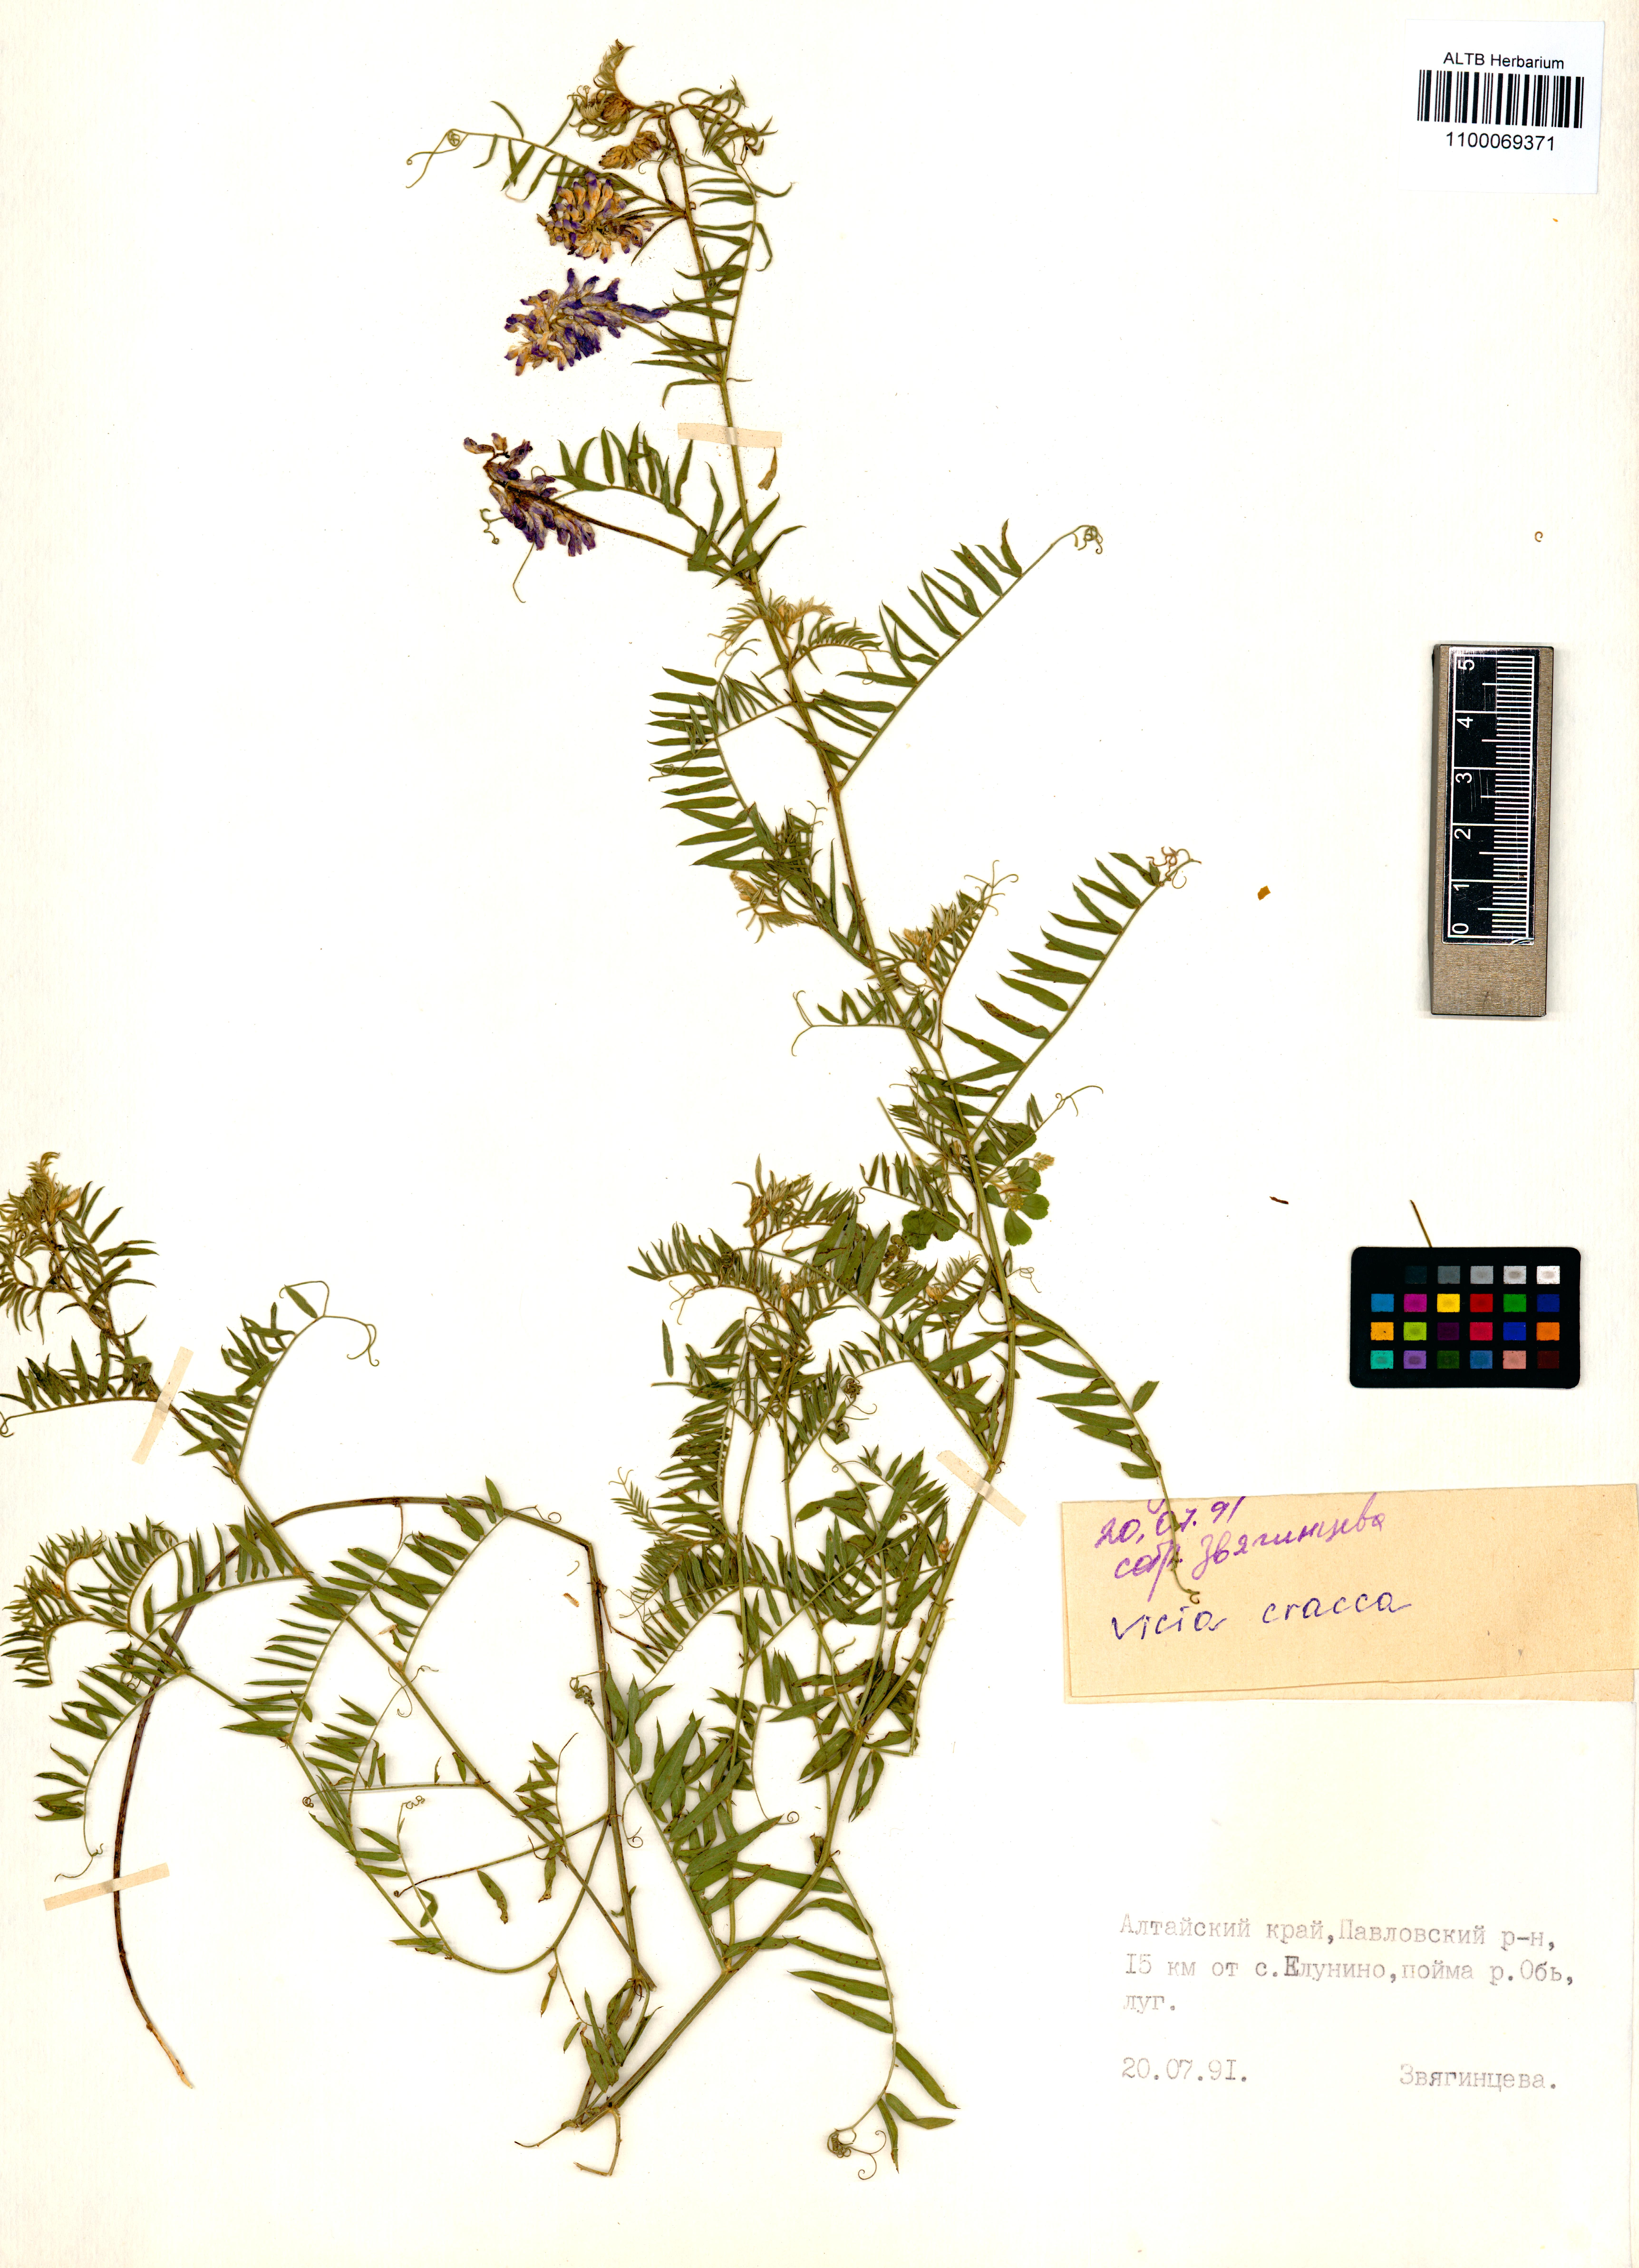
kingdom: Plantae
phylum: Tracheophyta
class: Magnoliopsida
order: Fabales
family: Fabaceae
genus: Vicia
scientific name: Vicia cracca
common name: Bird vetch
